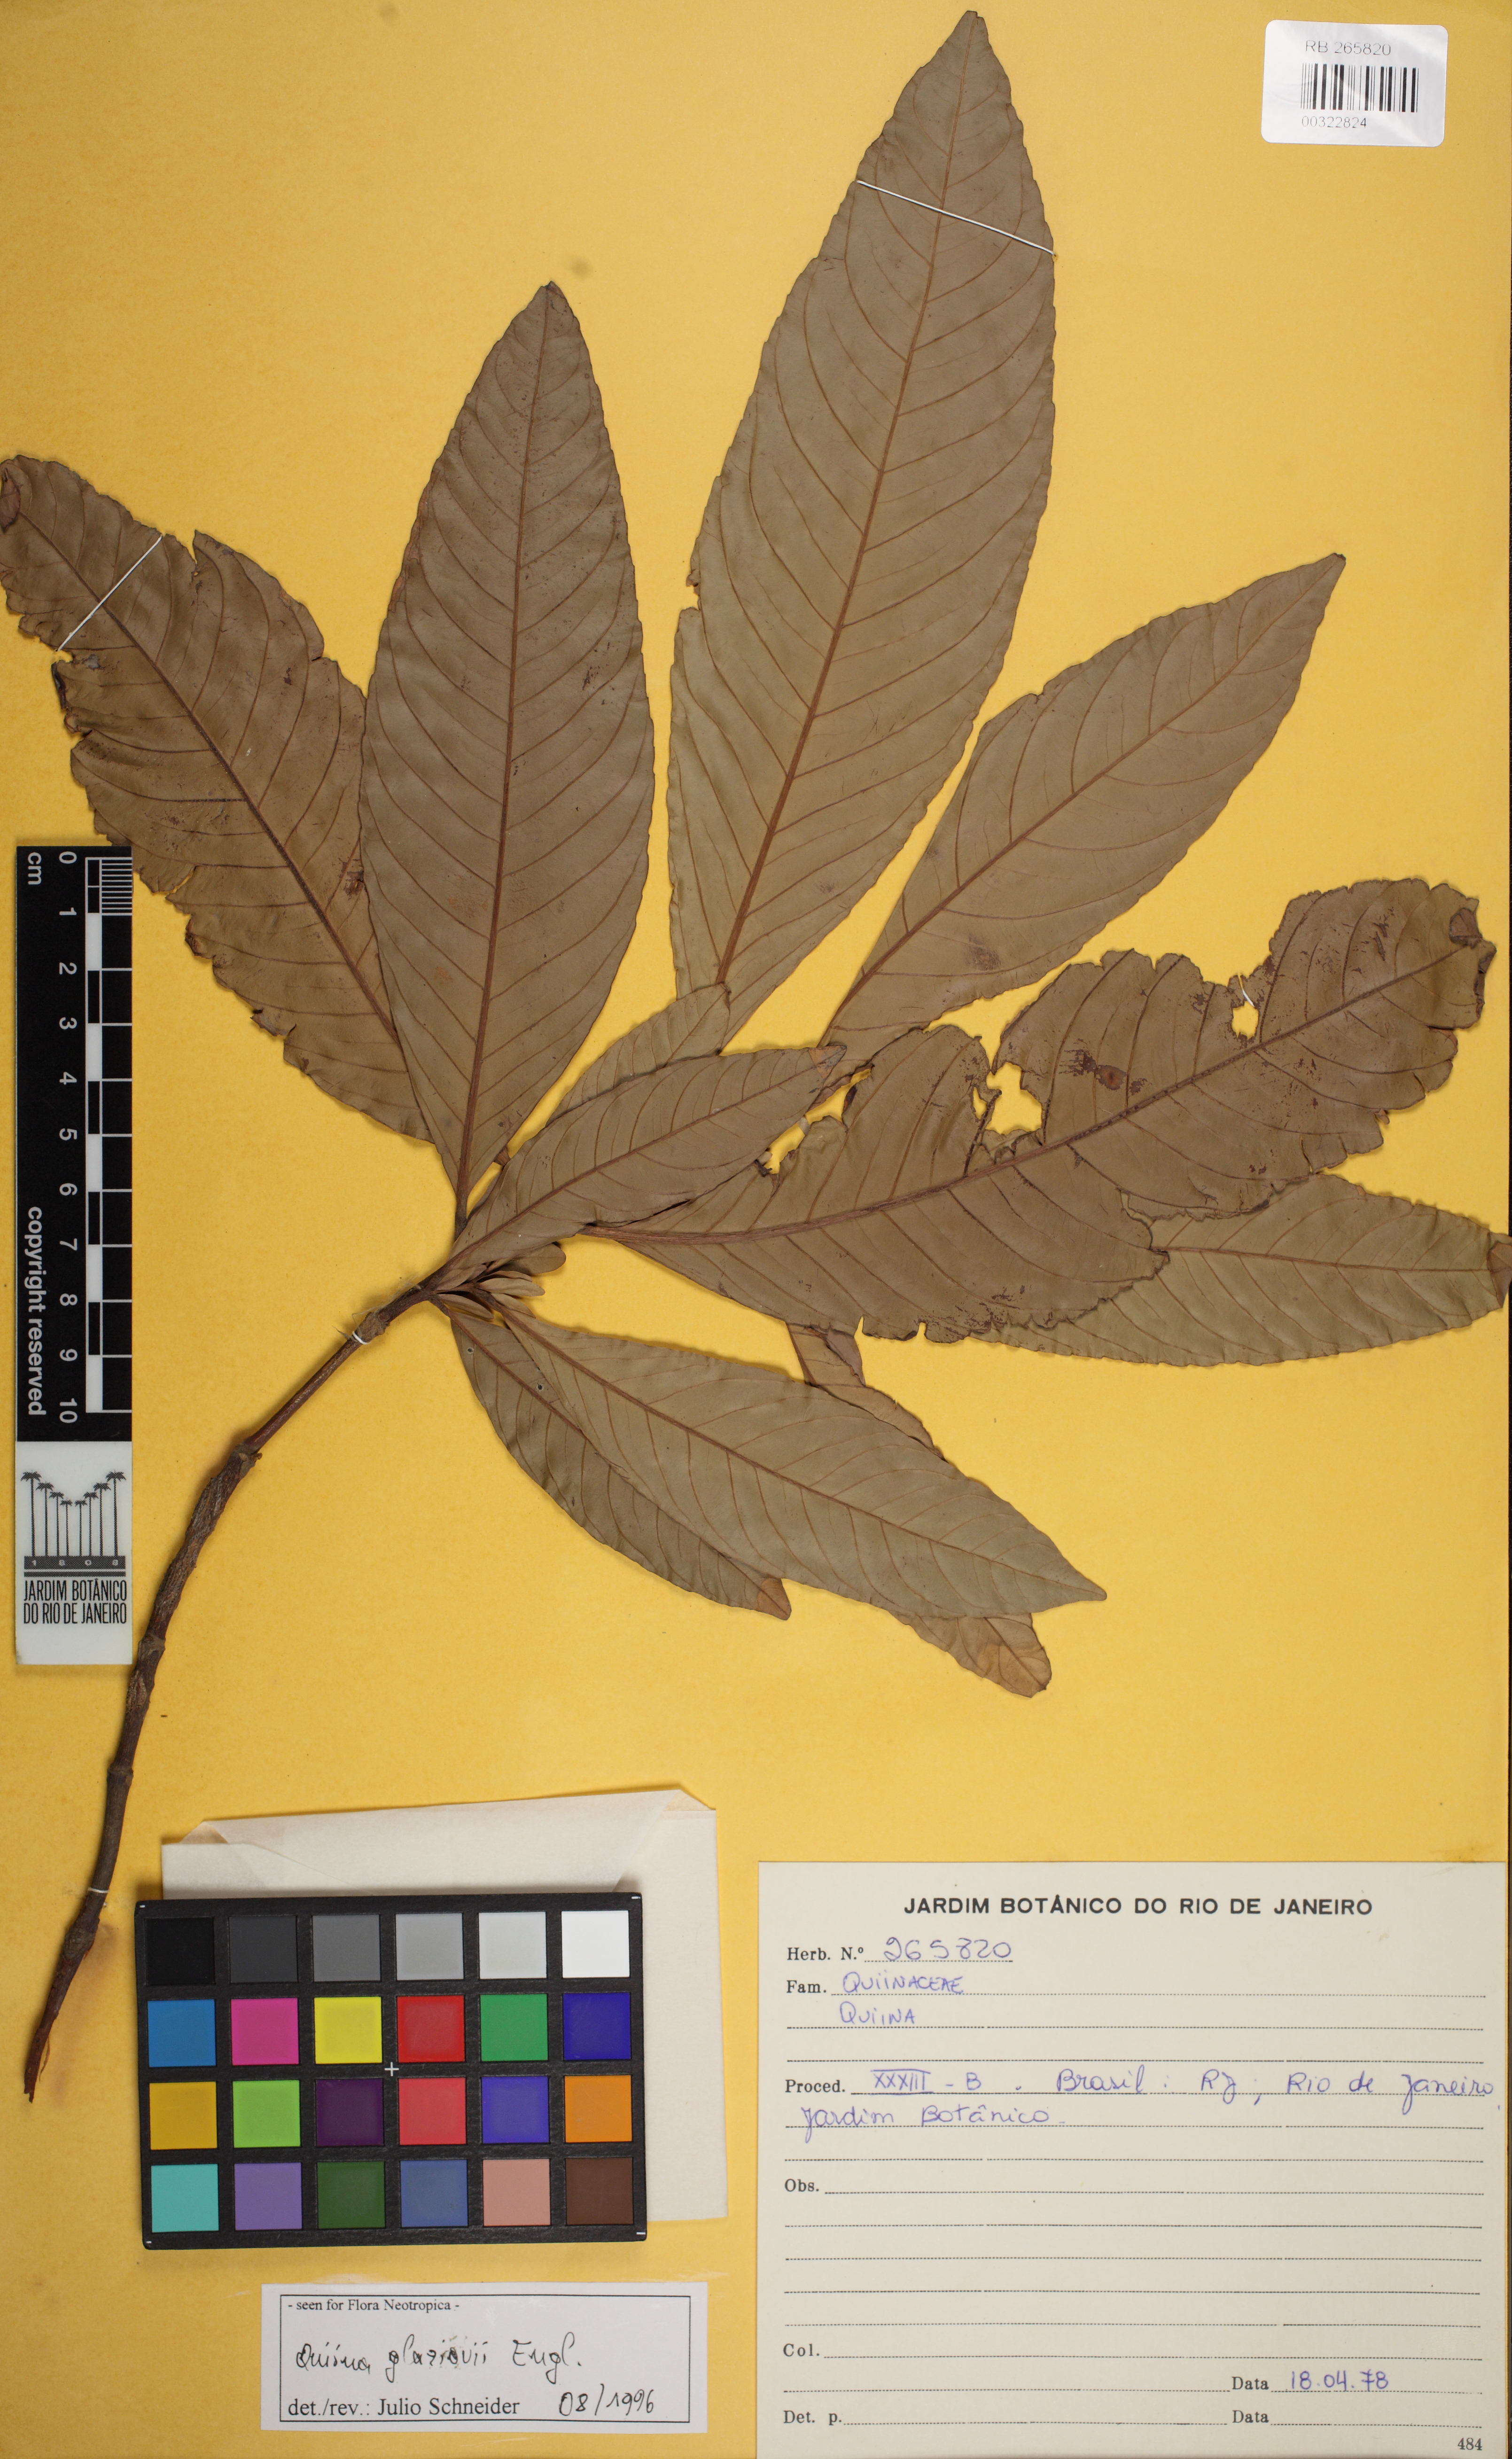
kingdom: Plantae
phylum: Tracheophyta
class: Magnoliopsida
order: Malpighiales
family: Quiinaceae
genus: Quiina
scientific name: Quiina glaziovii
